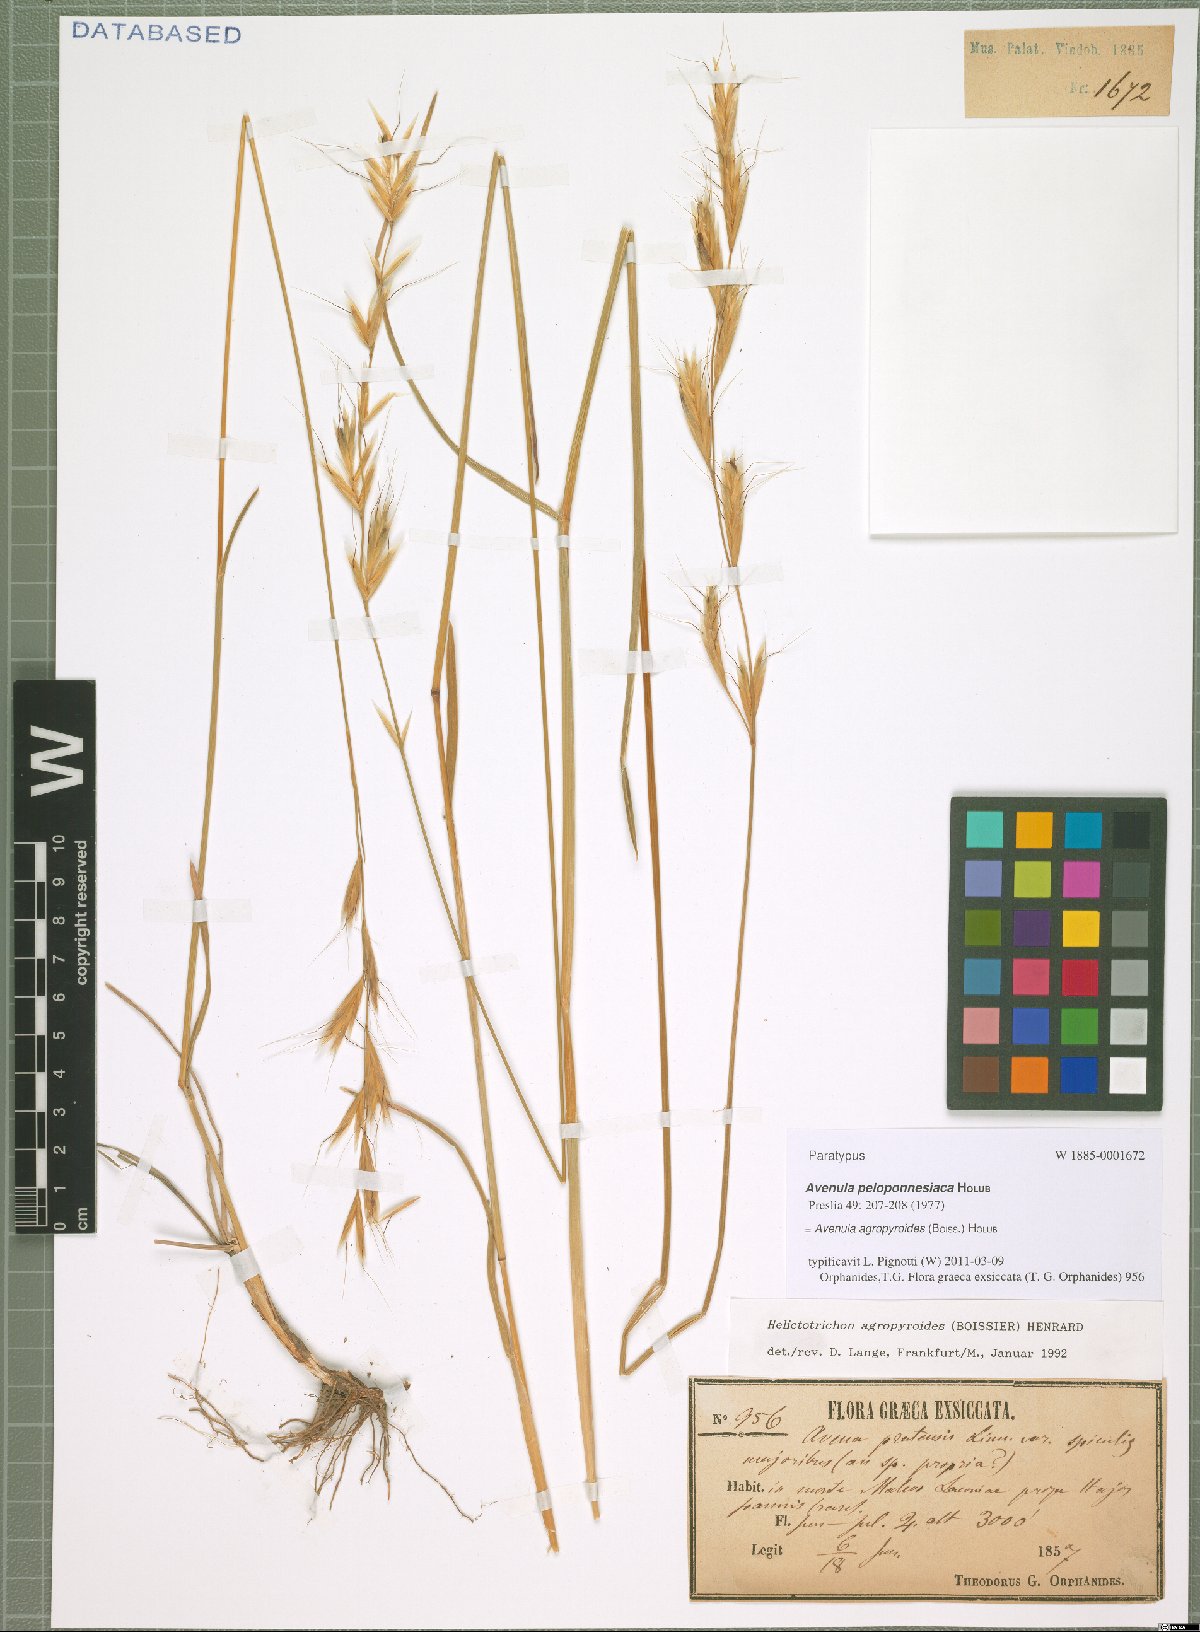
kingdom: Plantae
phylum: Tracheophyta
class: Liliopsida
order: Poales
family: Poaceae
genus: Helictochloa
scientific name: Helictochloa agropyroides
